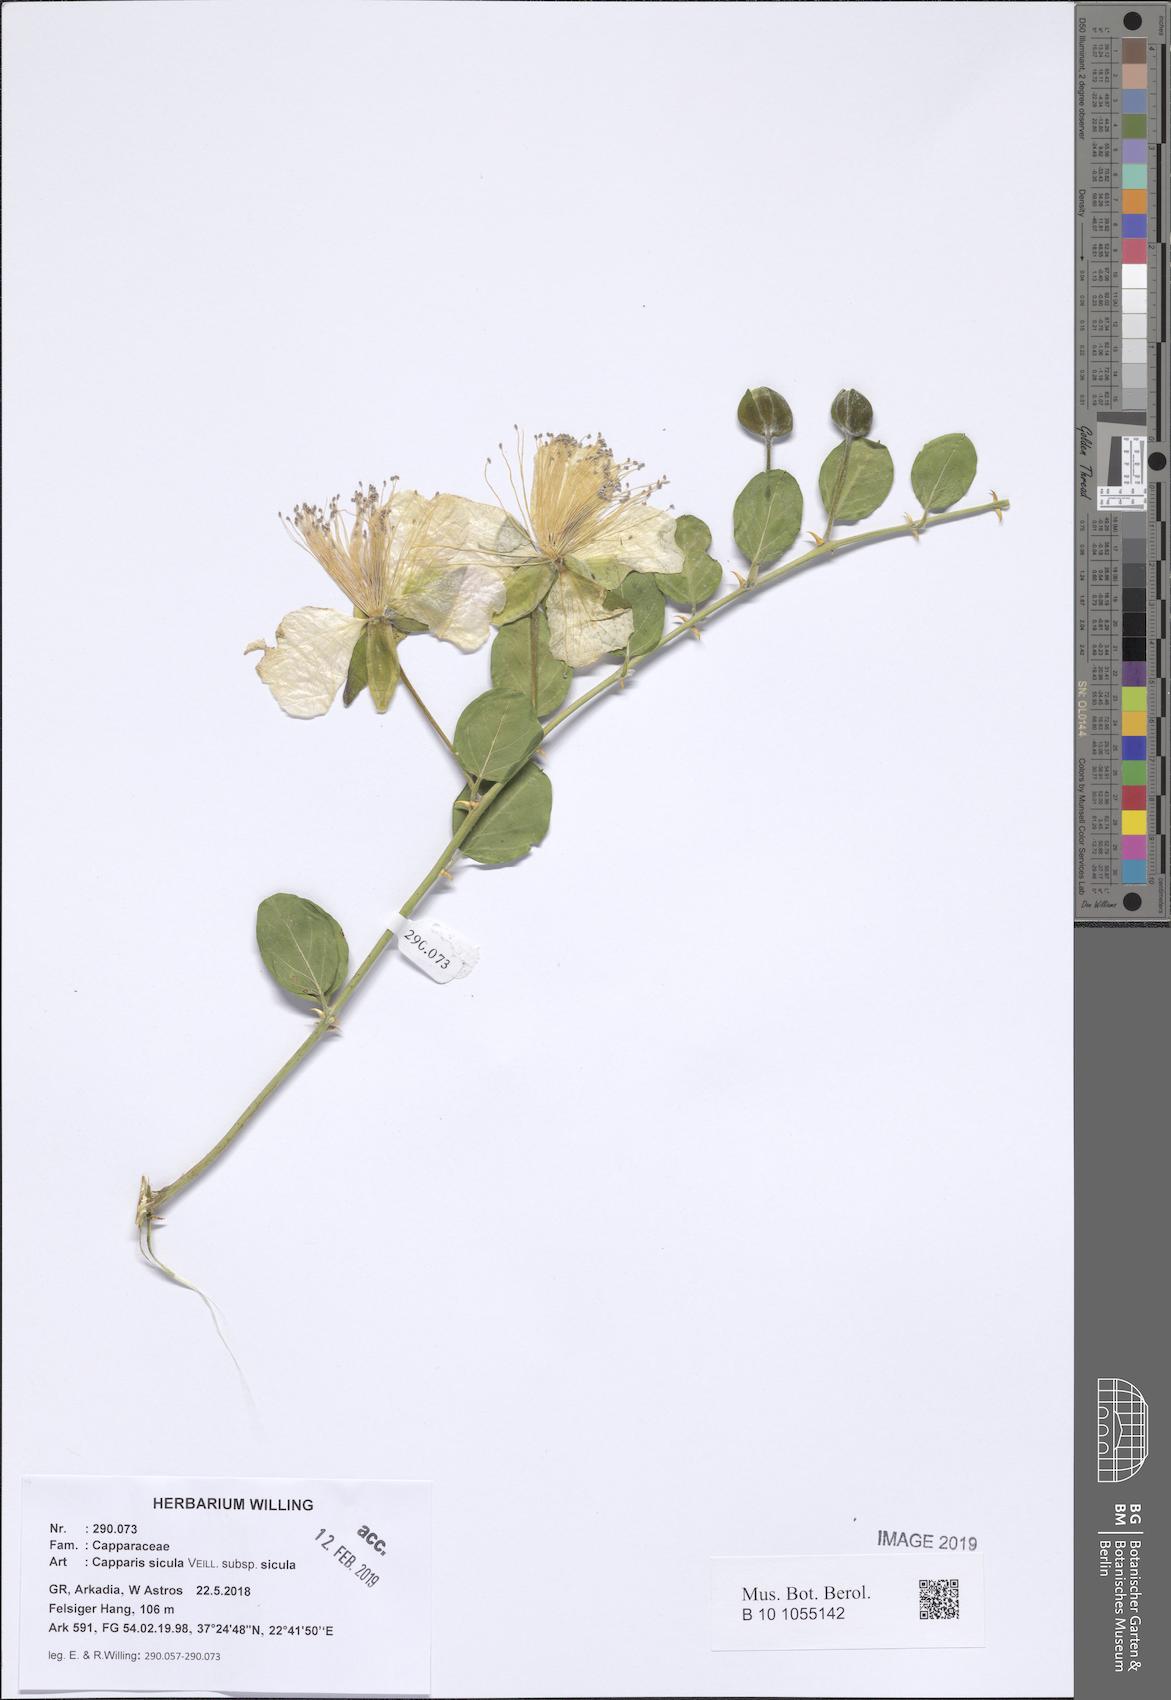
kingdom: Plantae
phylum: Tracheophyta
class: Magnoliopsida
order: Brassicales
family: Capparaceae
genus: Capparis
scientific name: Capparis spinosa
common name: Caper
